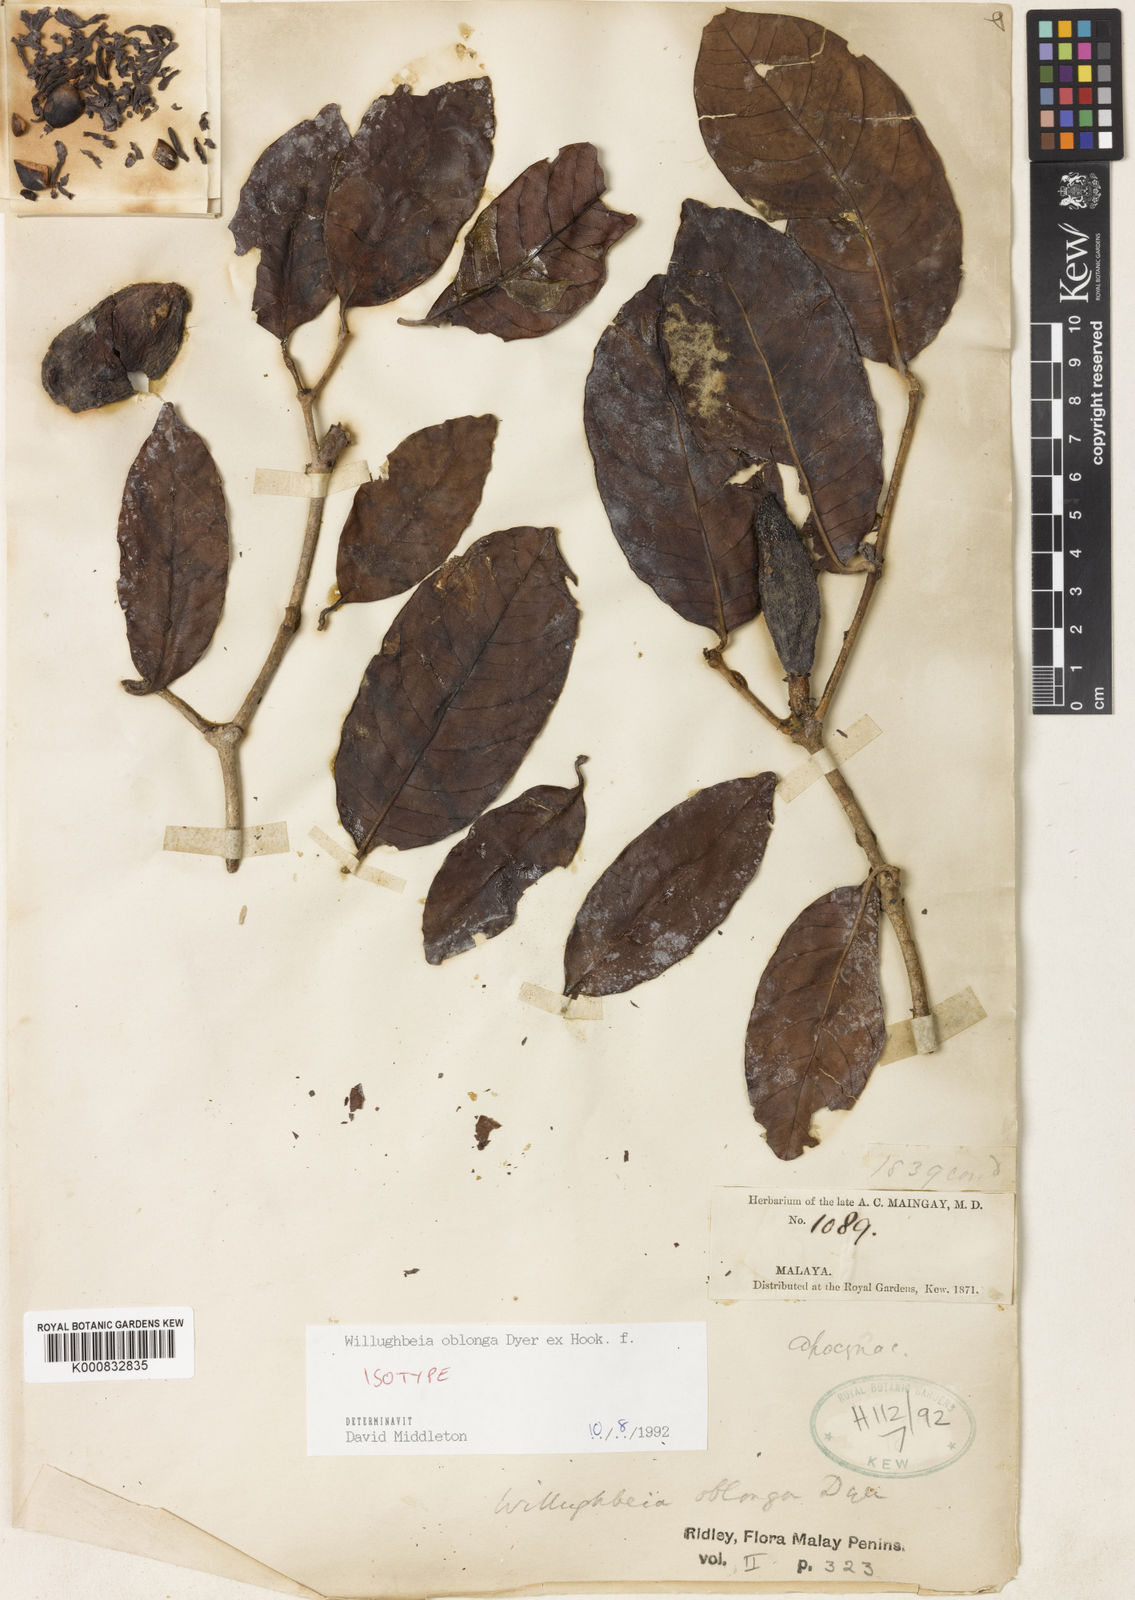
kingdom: Plantae
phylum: Tracheophyta
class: Magnoliopsida
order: Gentianales
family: Apocynaceae
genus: Willughbeia
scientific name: Willughbeia oblonga
